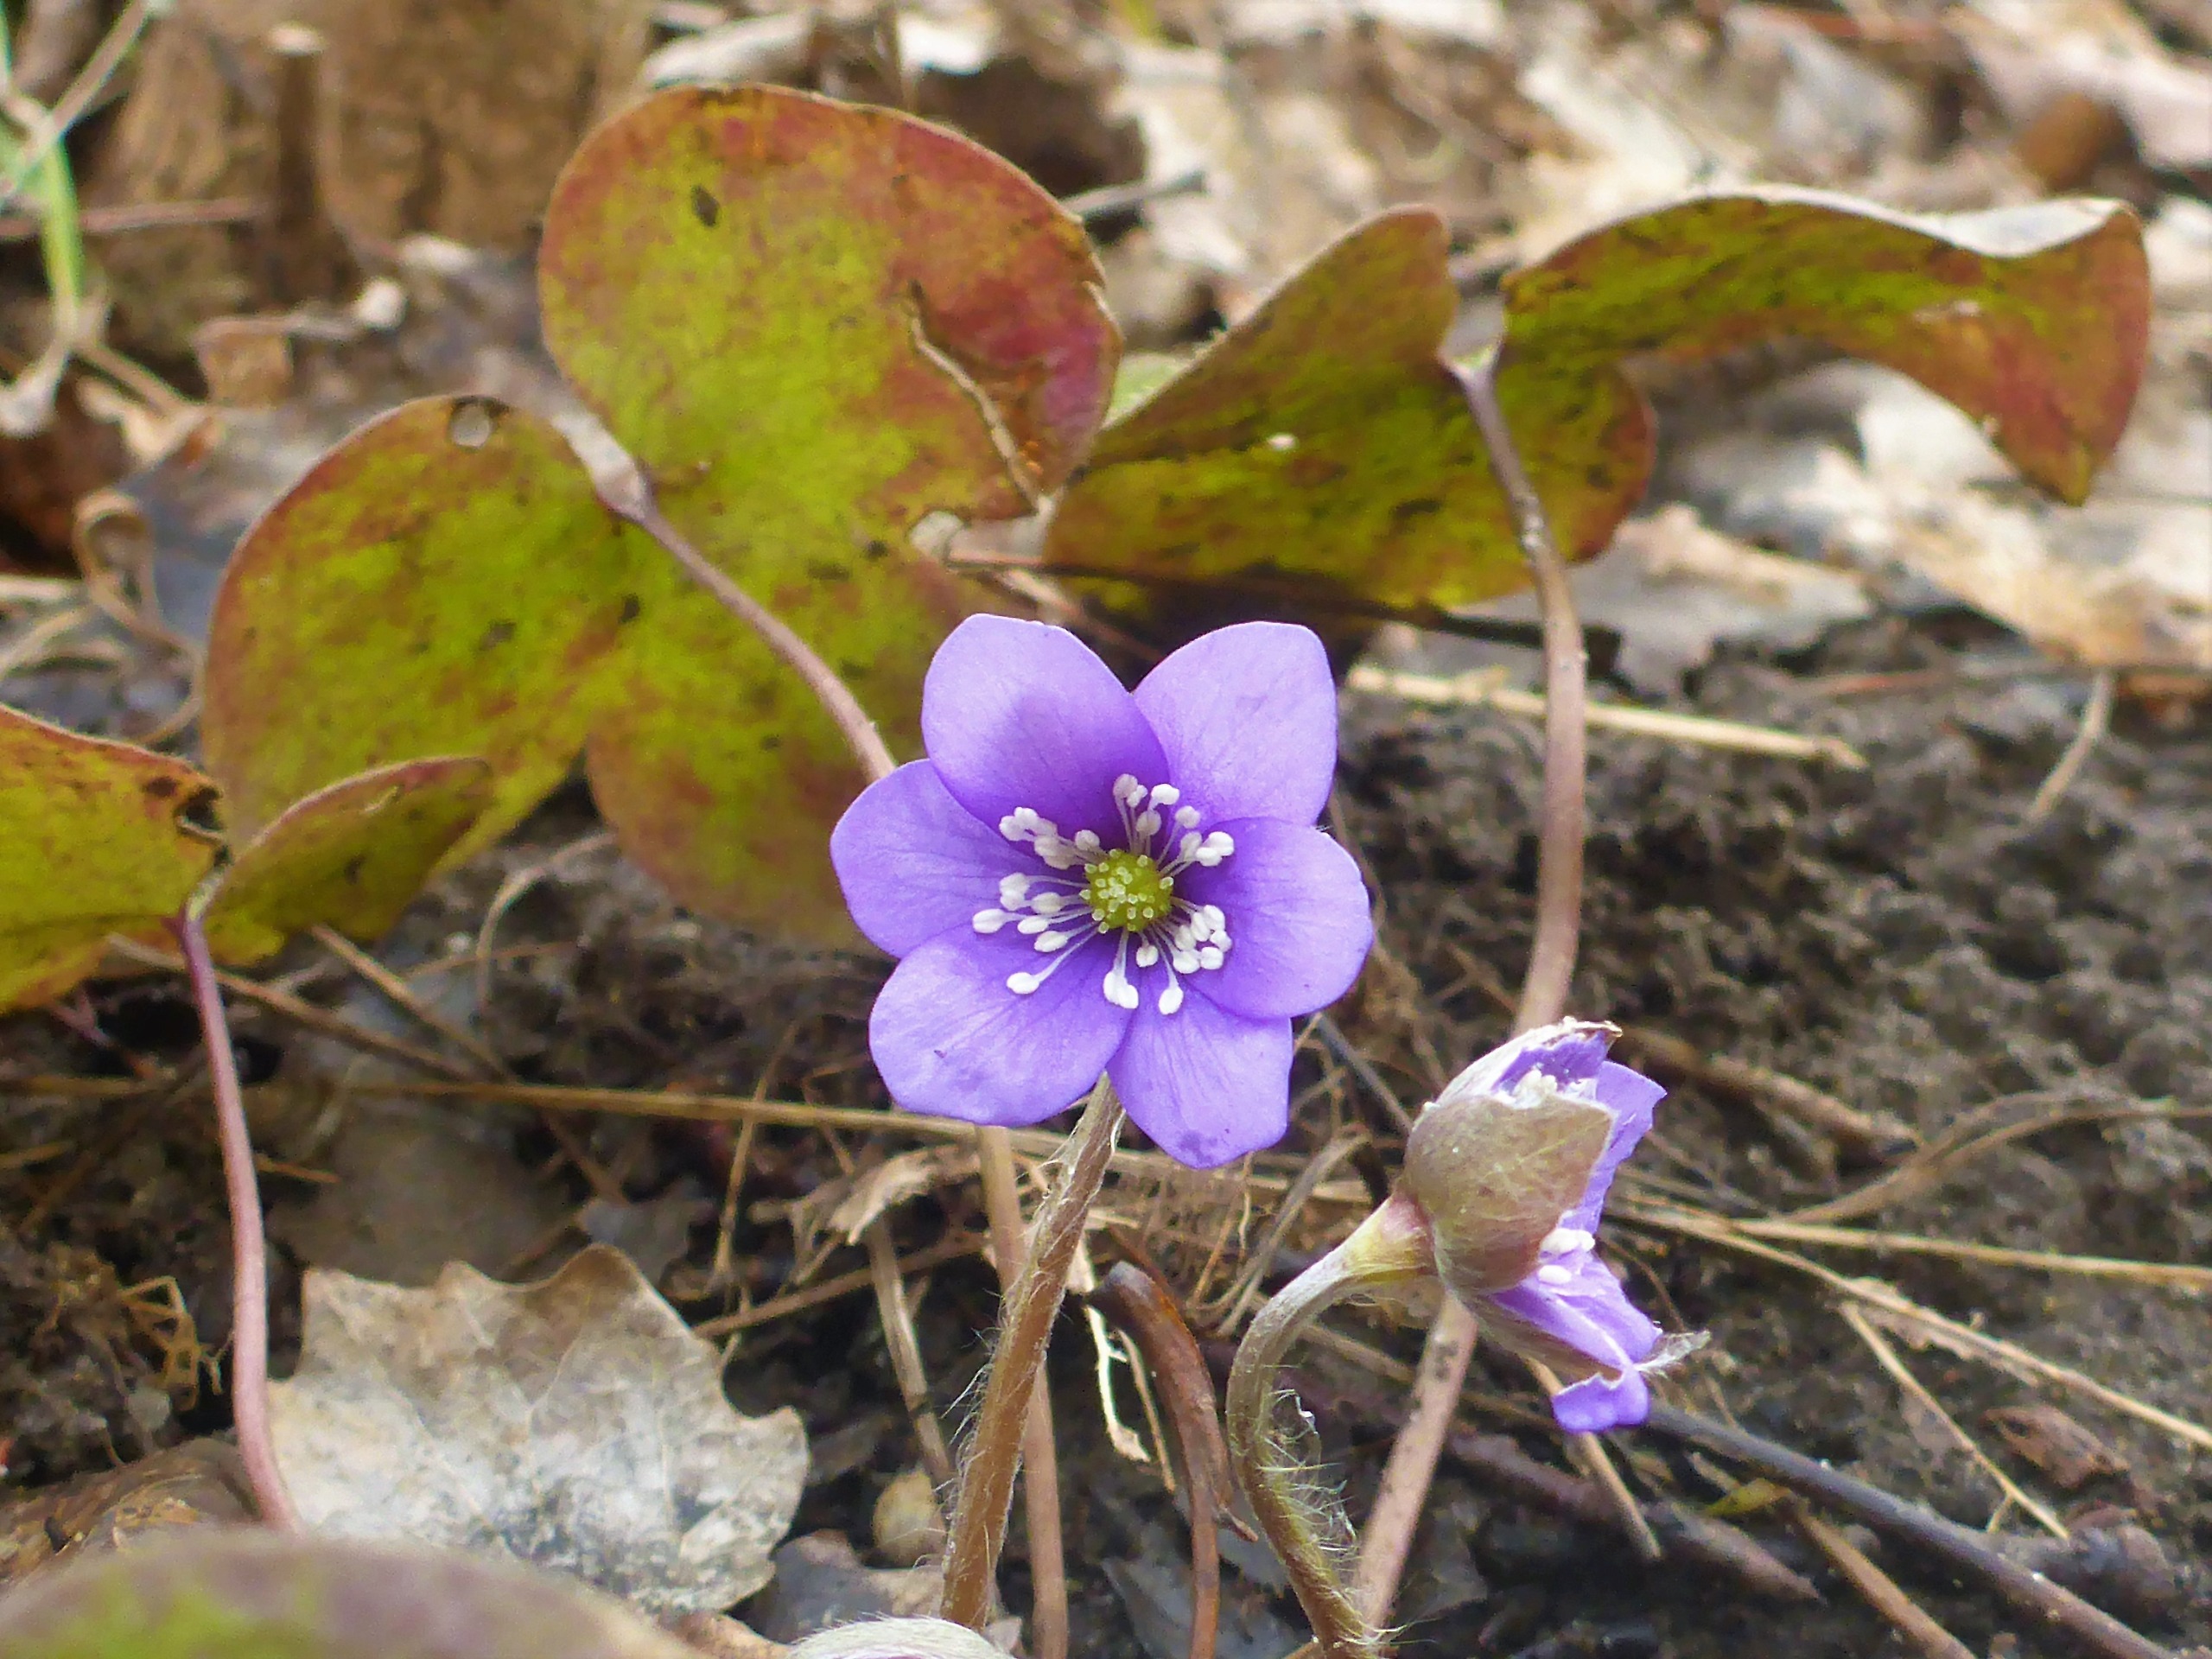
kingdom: Plantae
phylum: Tracheophyta
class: Magnoliopsida
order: Ranunculales
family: Ranunculaceae
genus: Hepatica
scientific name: Hepatica nobilis
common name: Blå anemone
